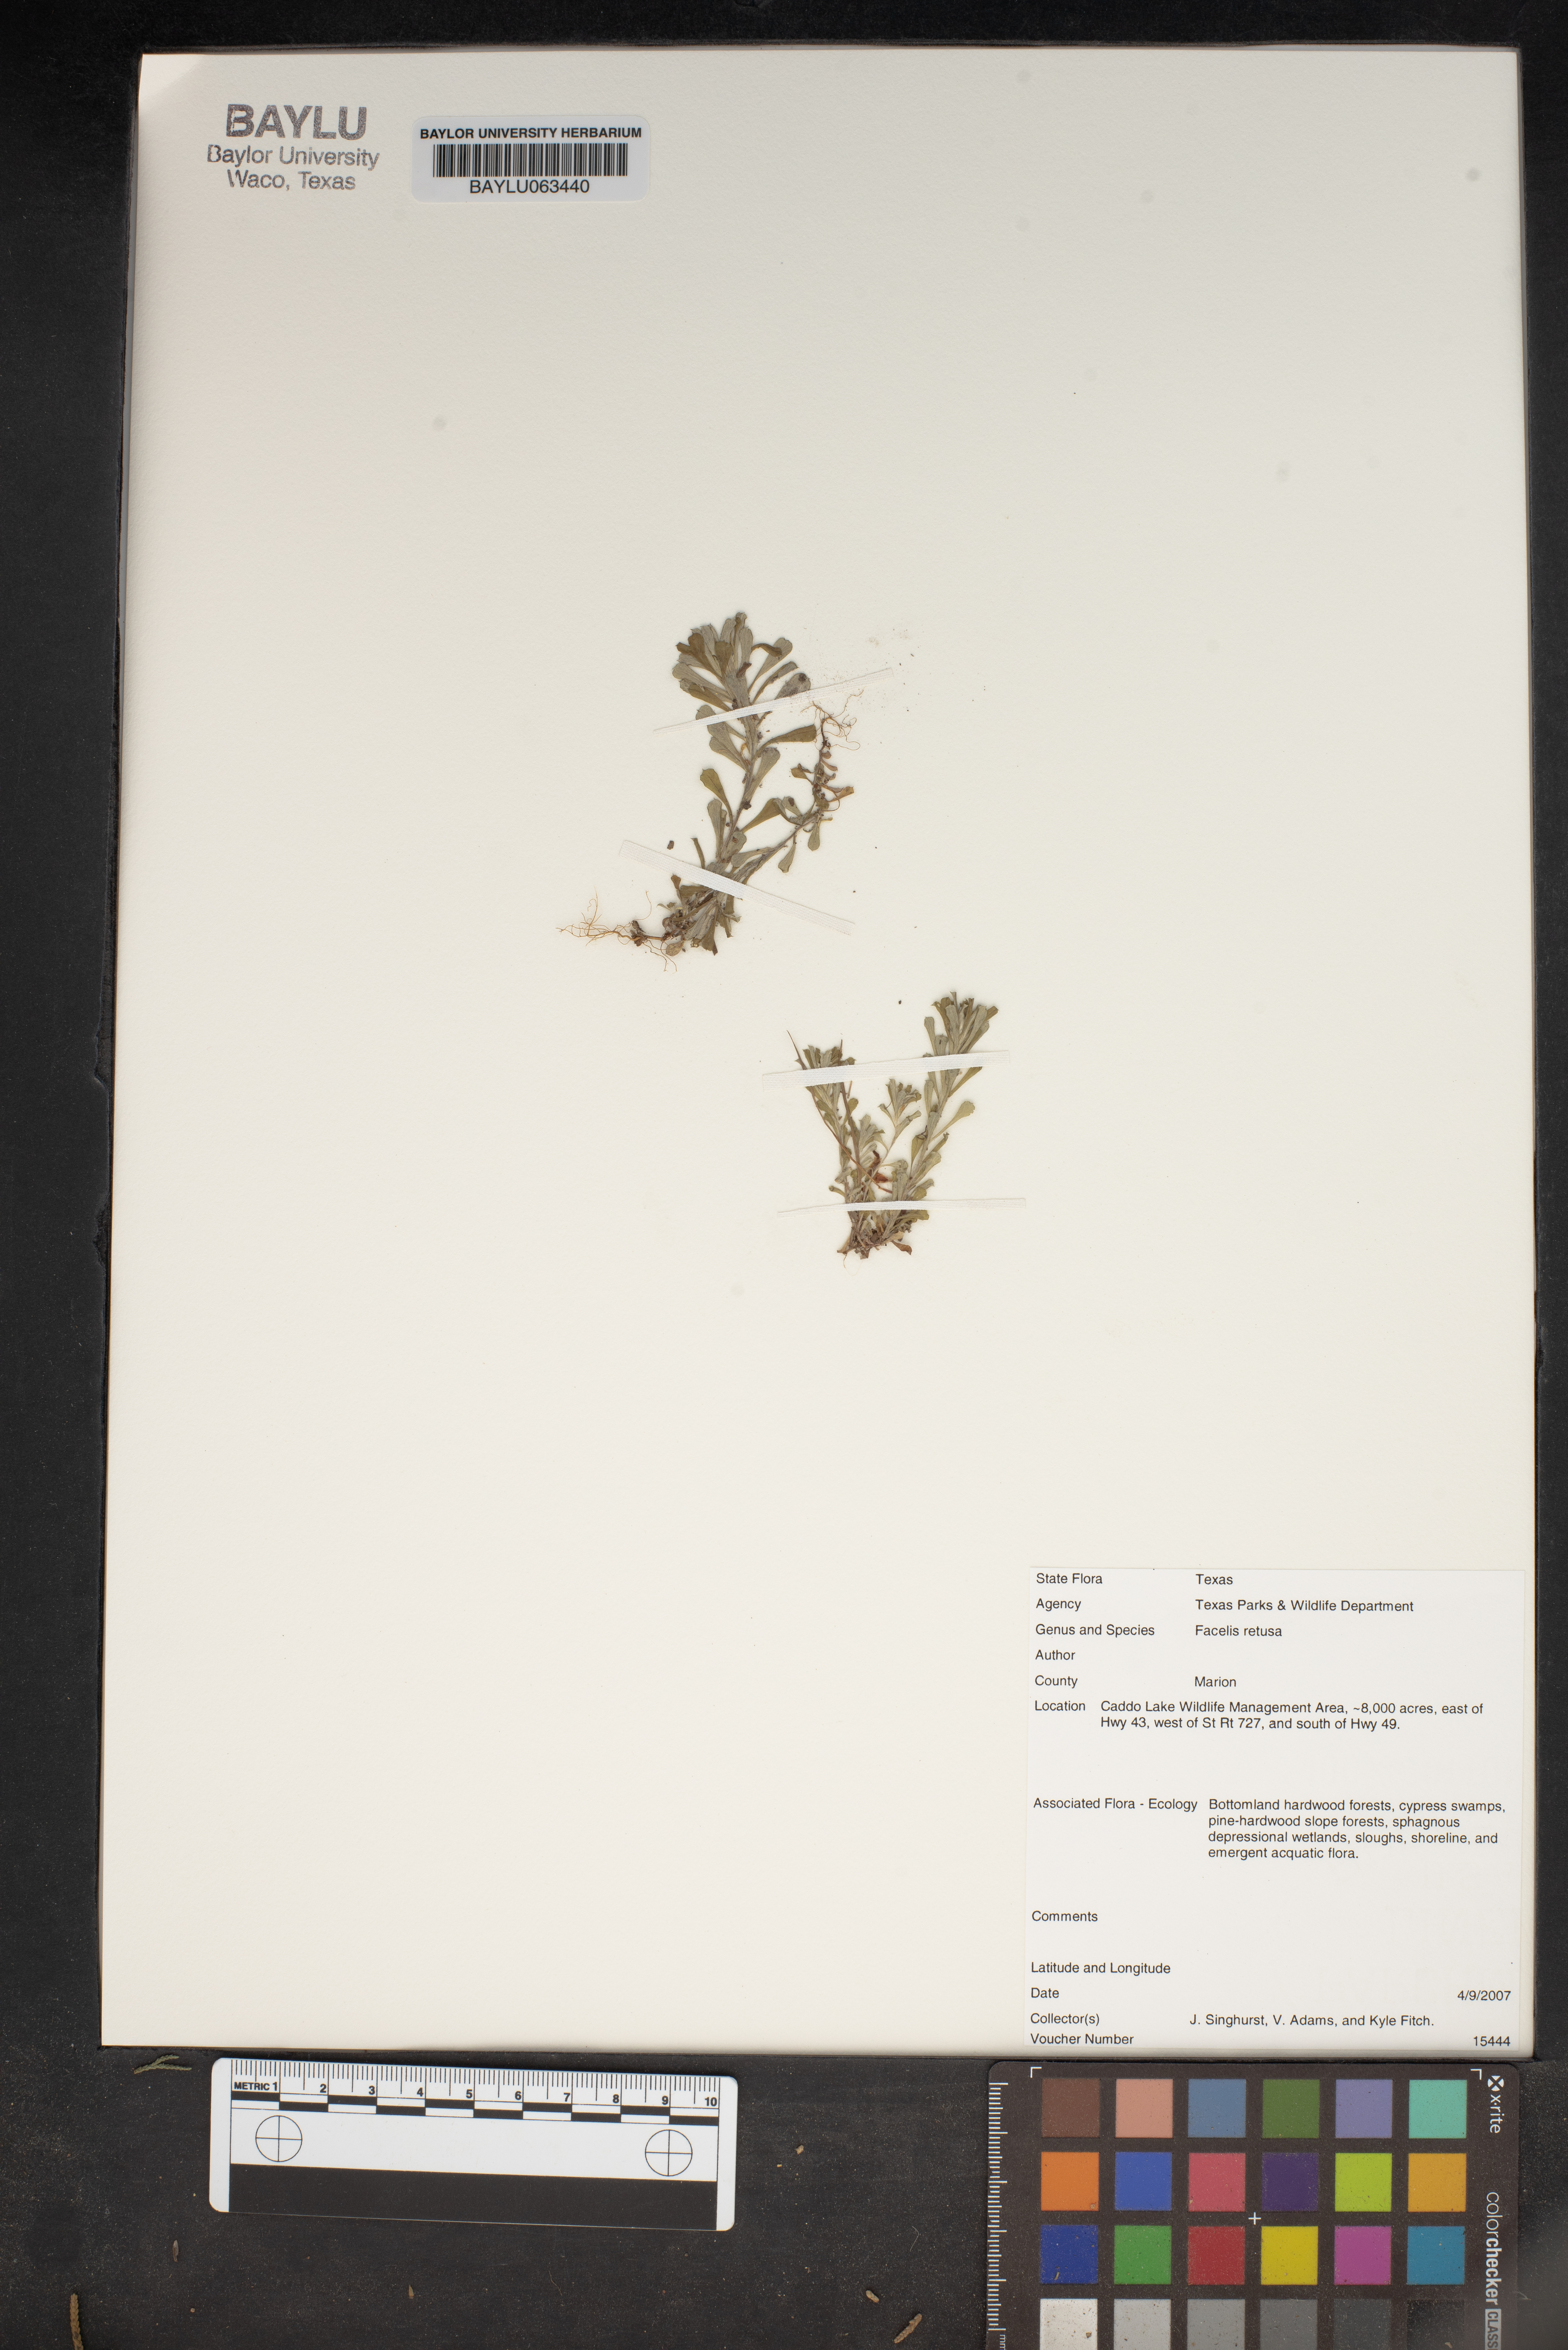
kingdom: Plantae
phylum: Tracheophyta
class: Magnoliopsida
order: Asterales
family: Asteraceae
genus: Facelis
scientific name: Facelis retusa
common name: Annual trampweed
